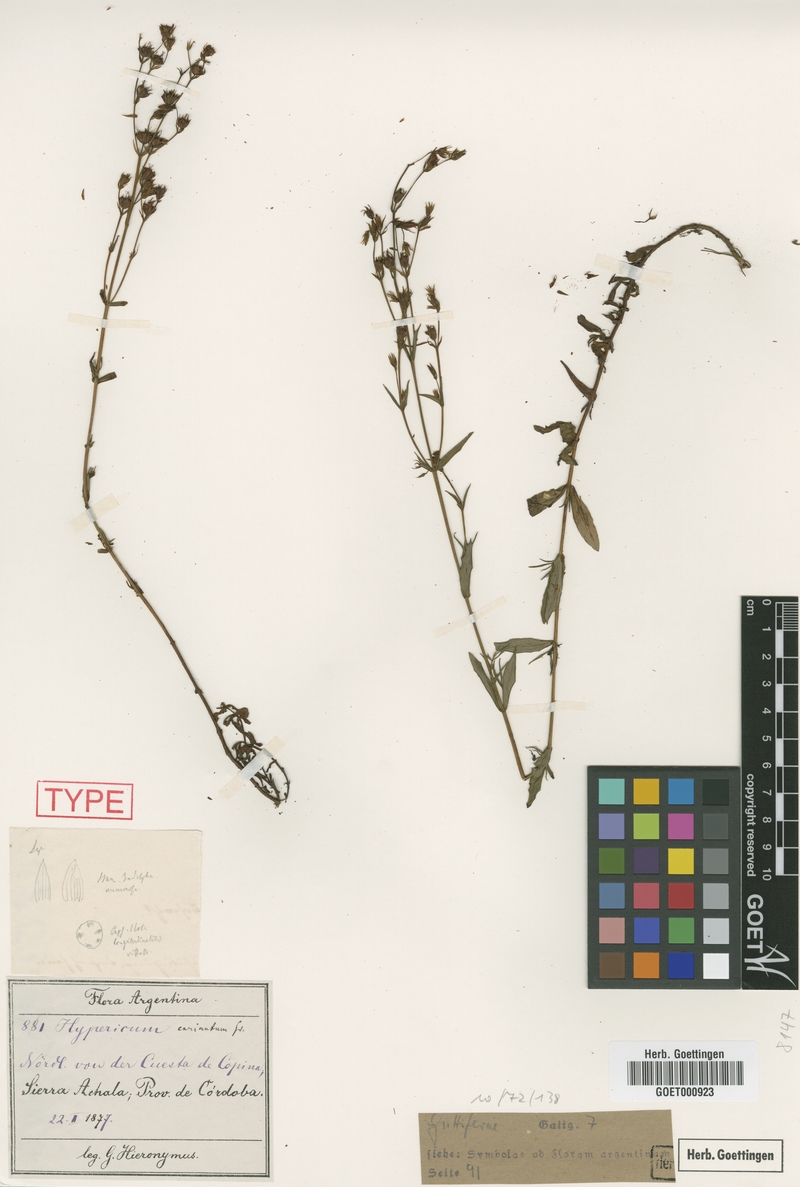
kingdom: Plantae
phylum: Tracheophyta
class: Magnoliopsida
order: Malpighiales
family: Hypericaceae
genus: Hypericum
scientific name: Hypericum carinatum
